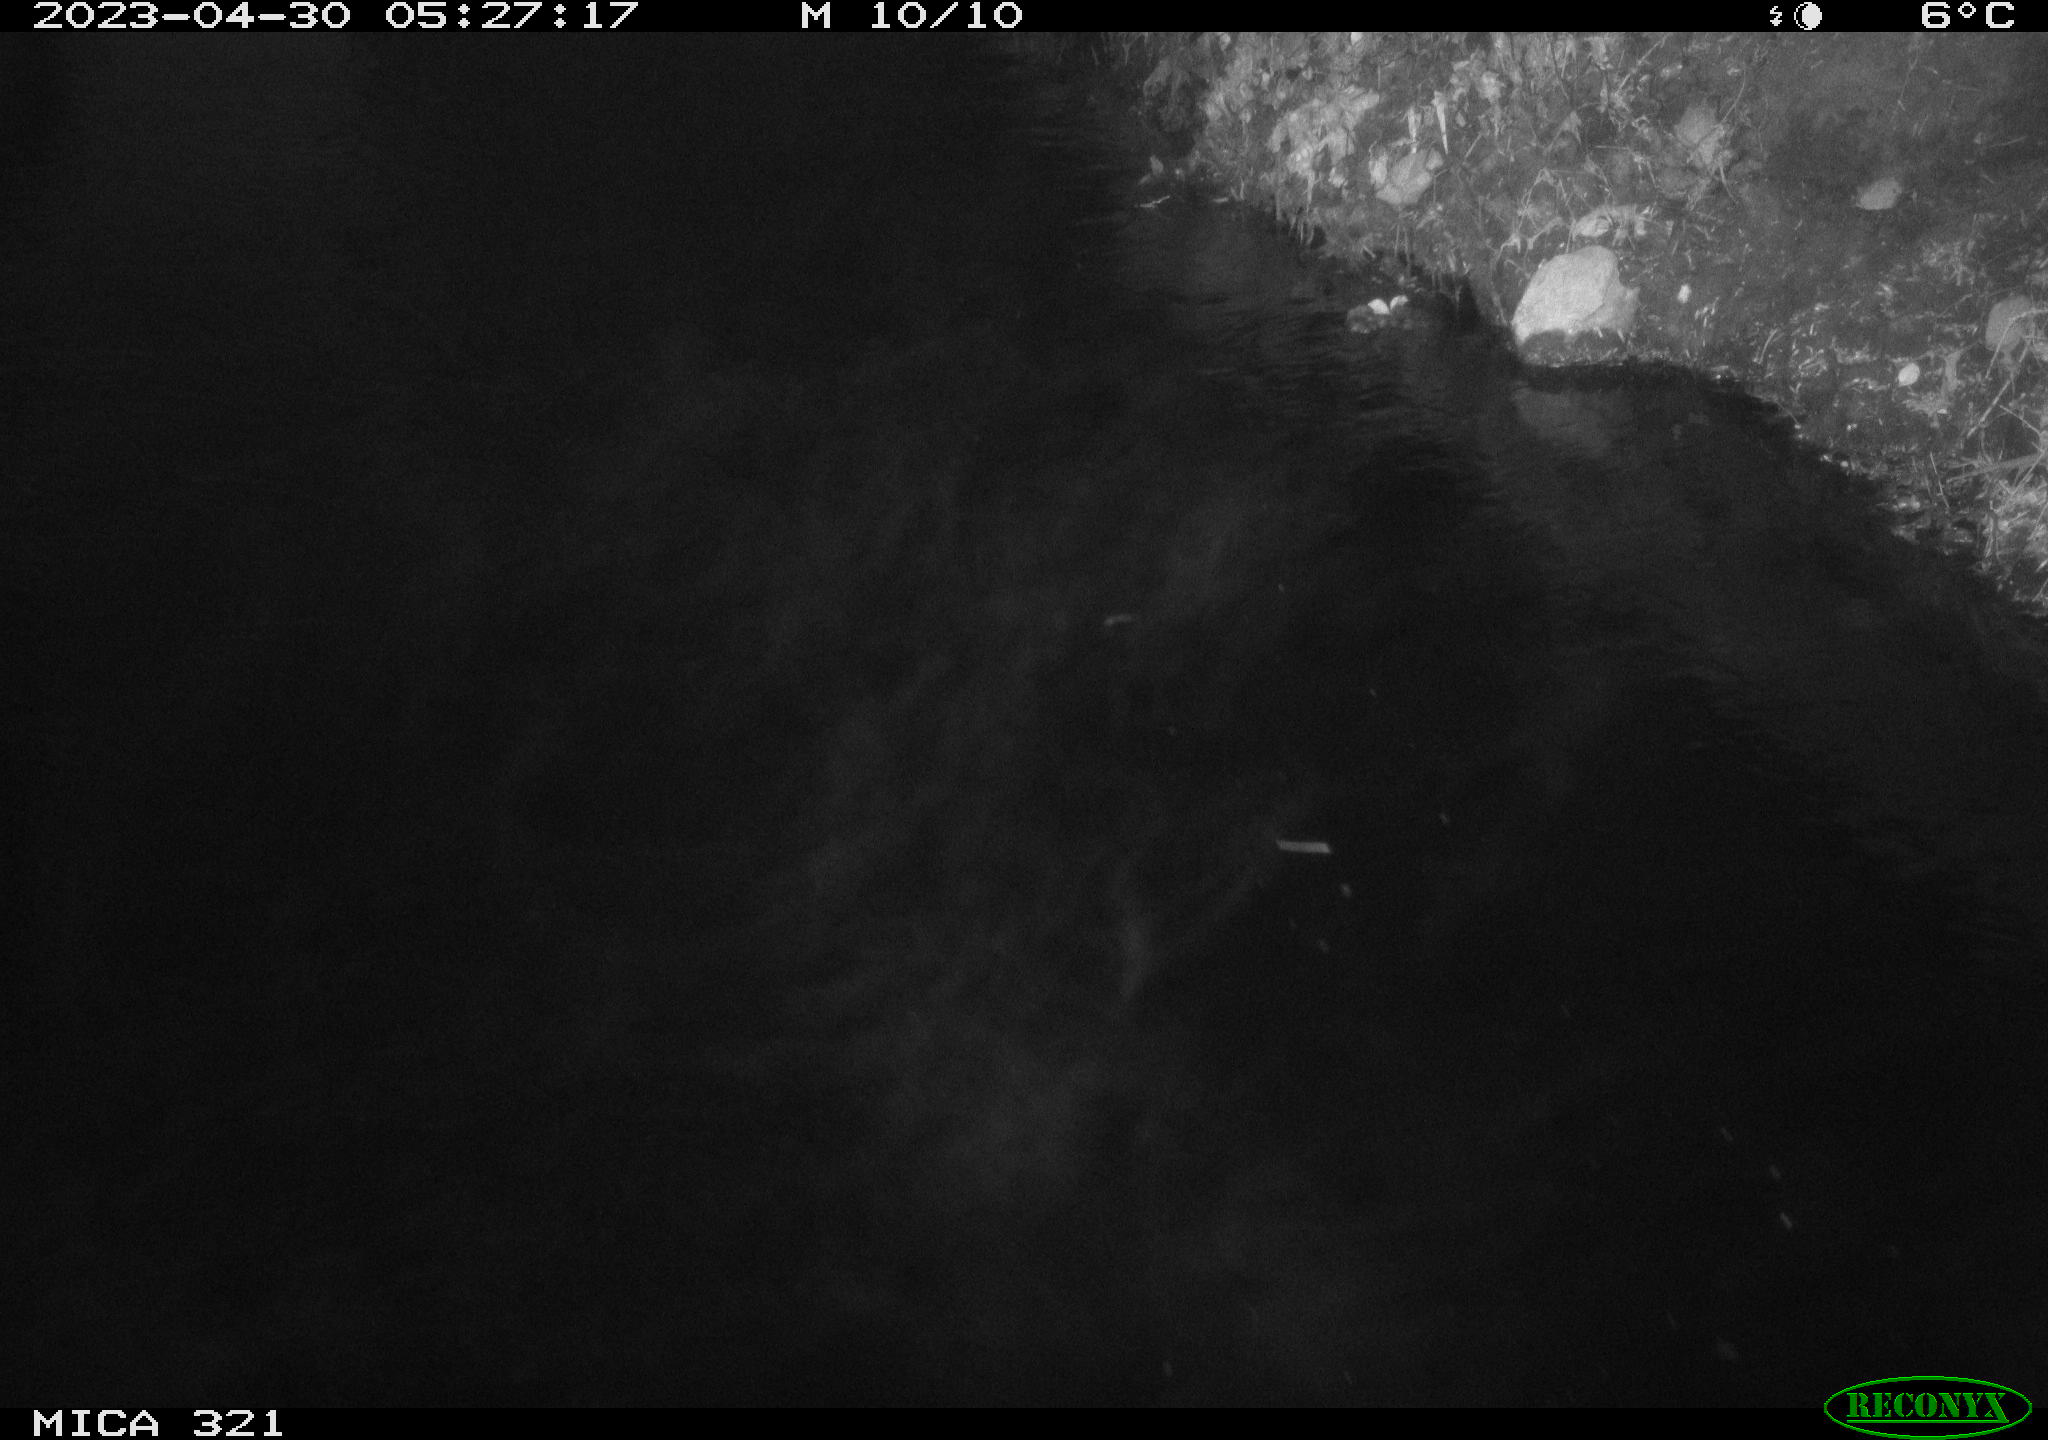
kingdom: Animalia
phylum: Chordata
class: Aves
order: Anseriformes
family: Anatidae
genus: Anas
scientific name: Anas
